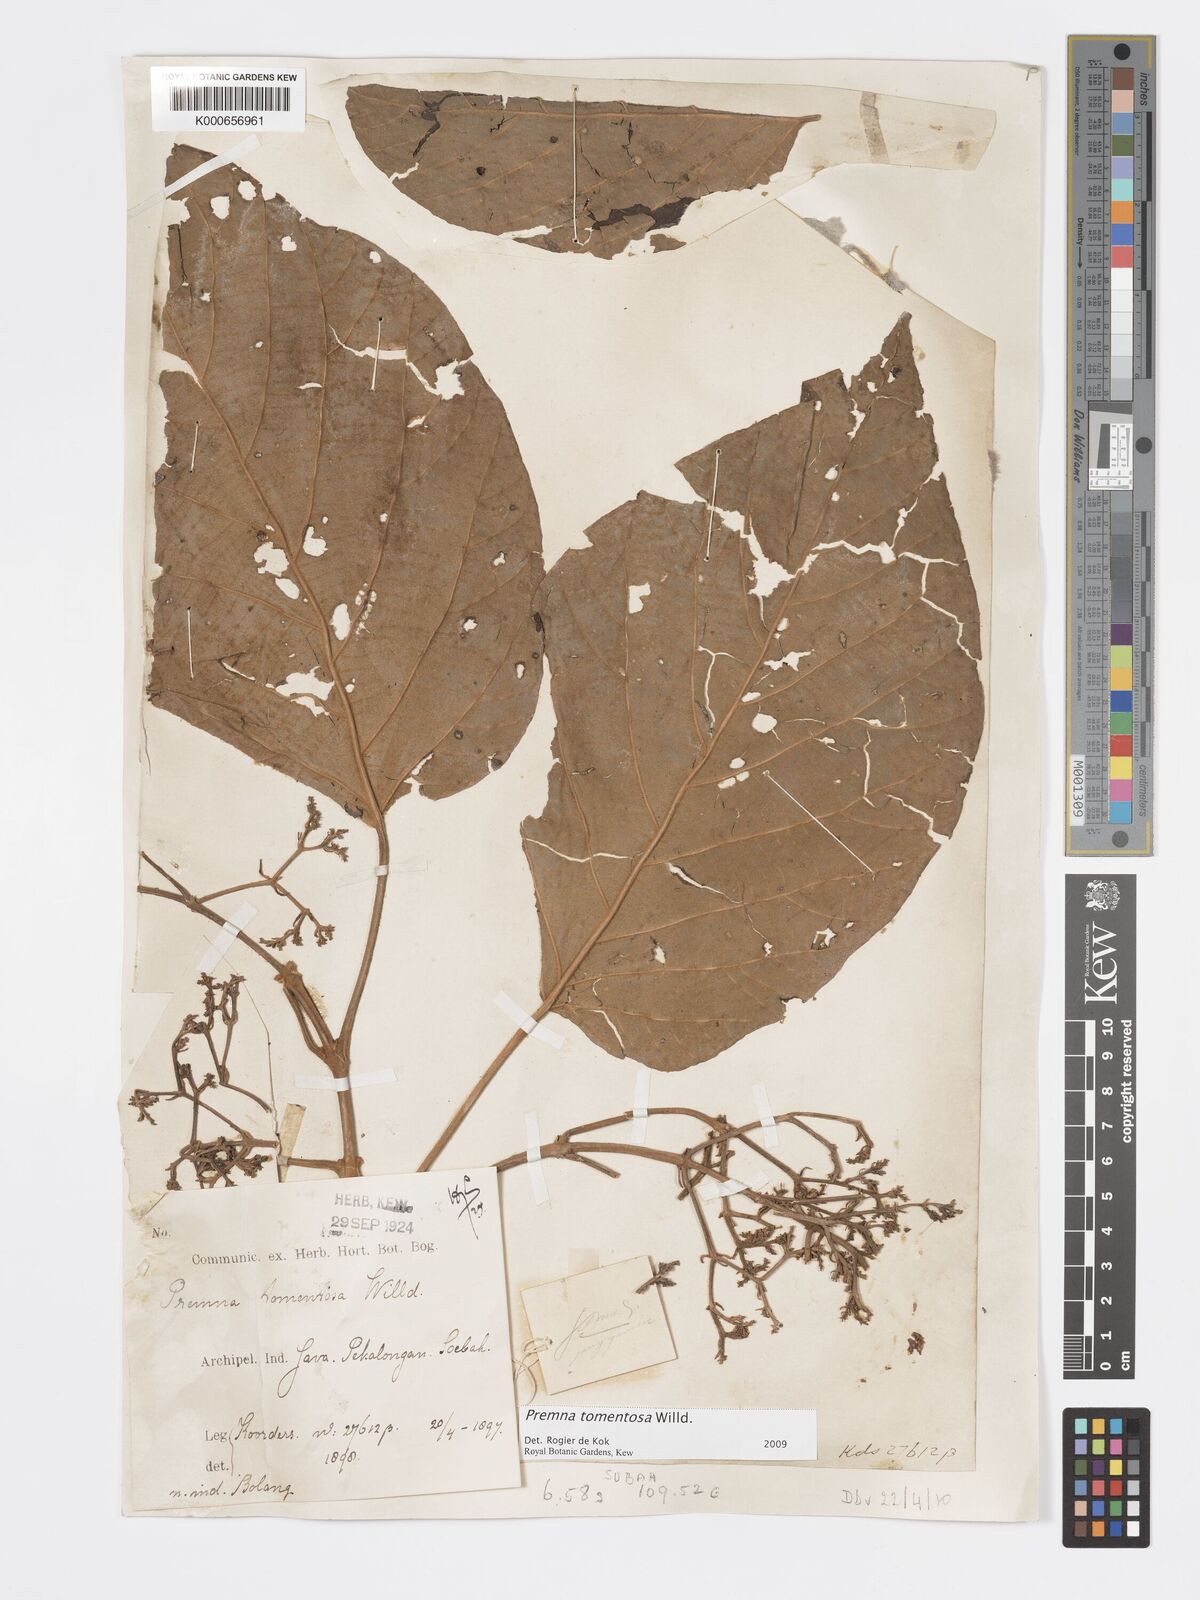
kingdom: Plantae
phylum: Tracheophyta
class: Magnoliopsida
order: Lamiales
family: Lamiaceae
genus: Premna
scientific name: Premna tomentosa
